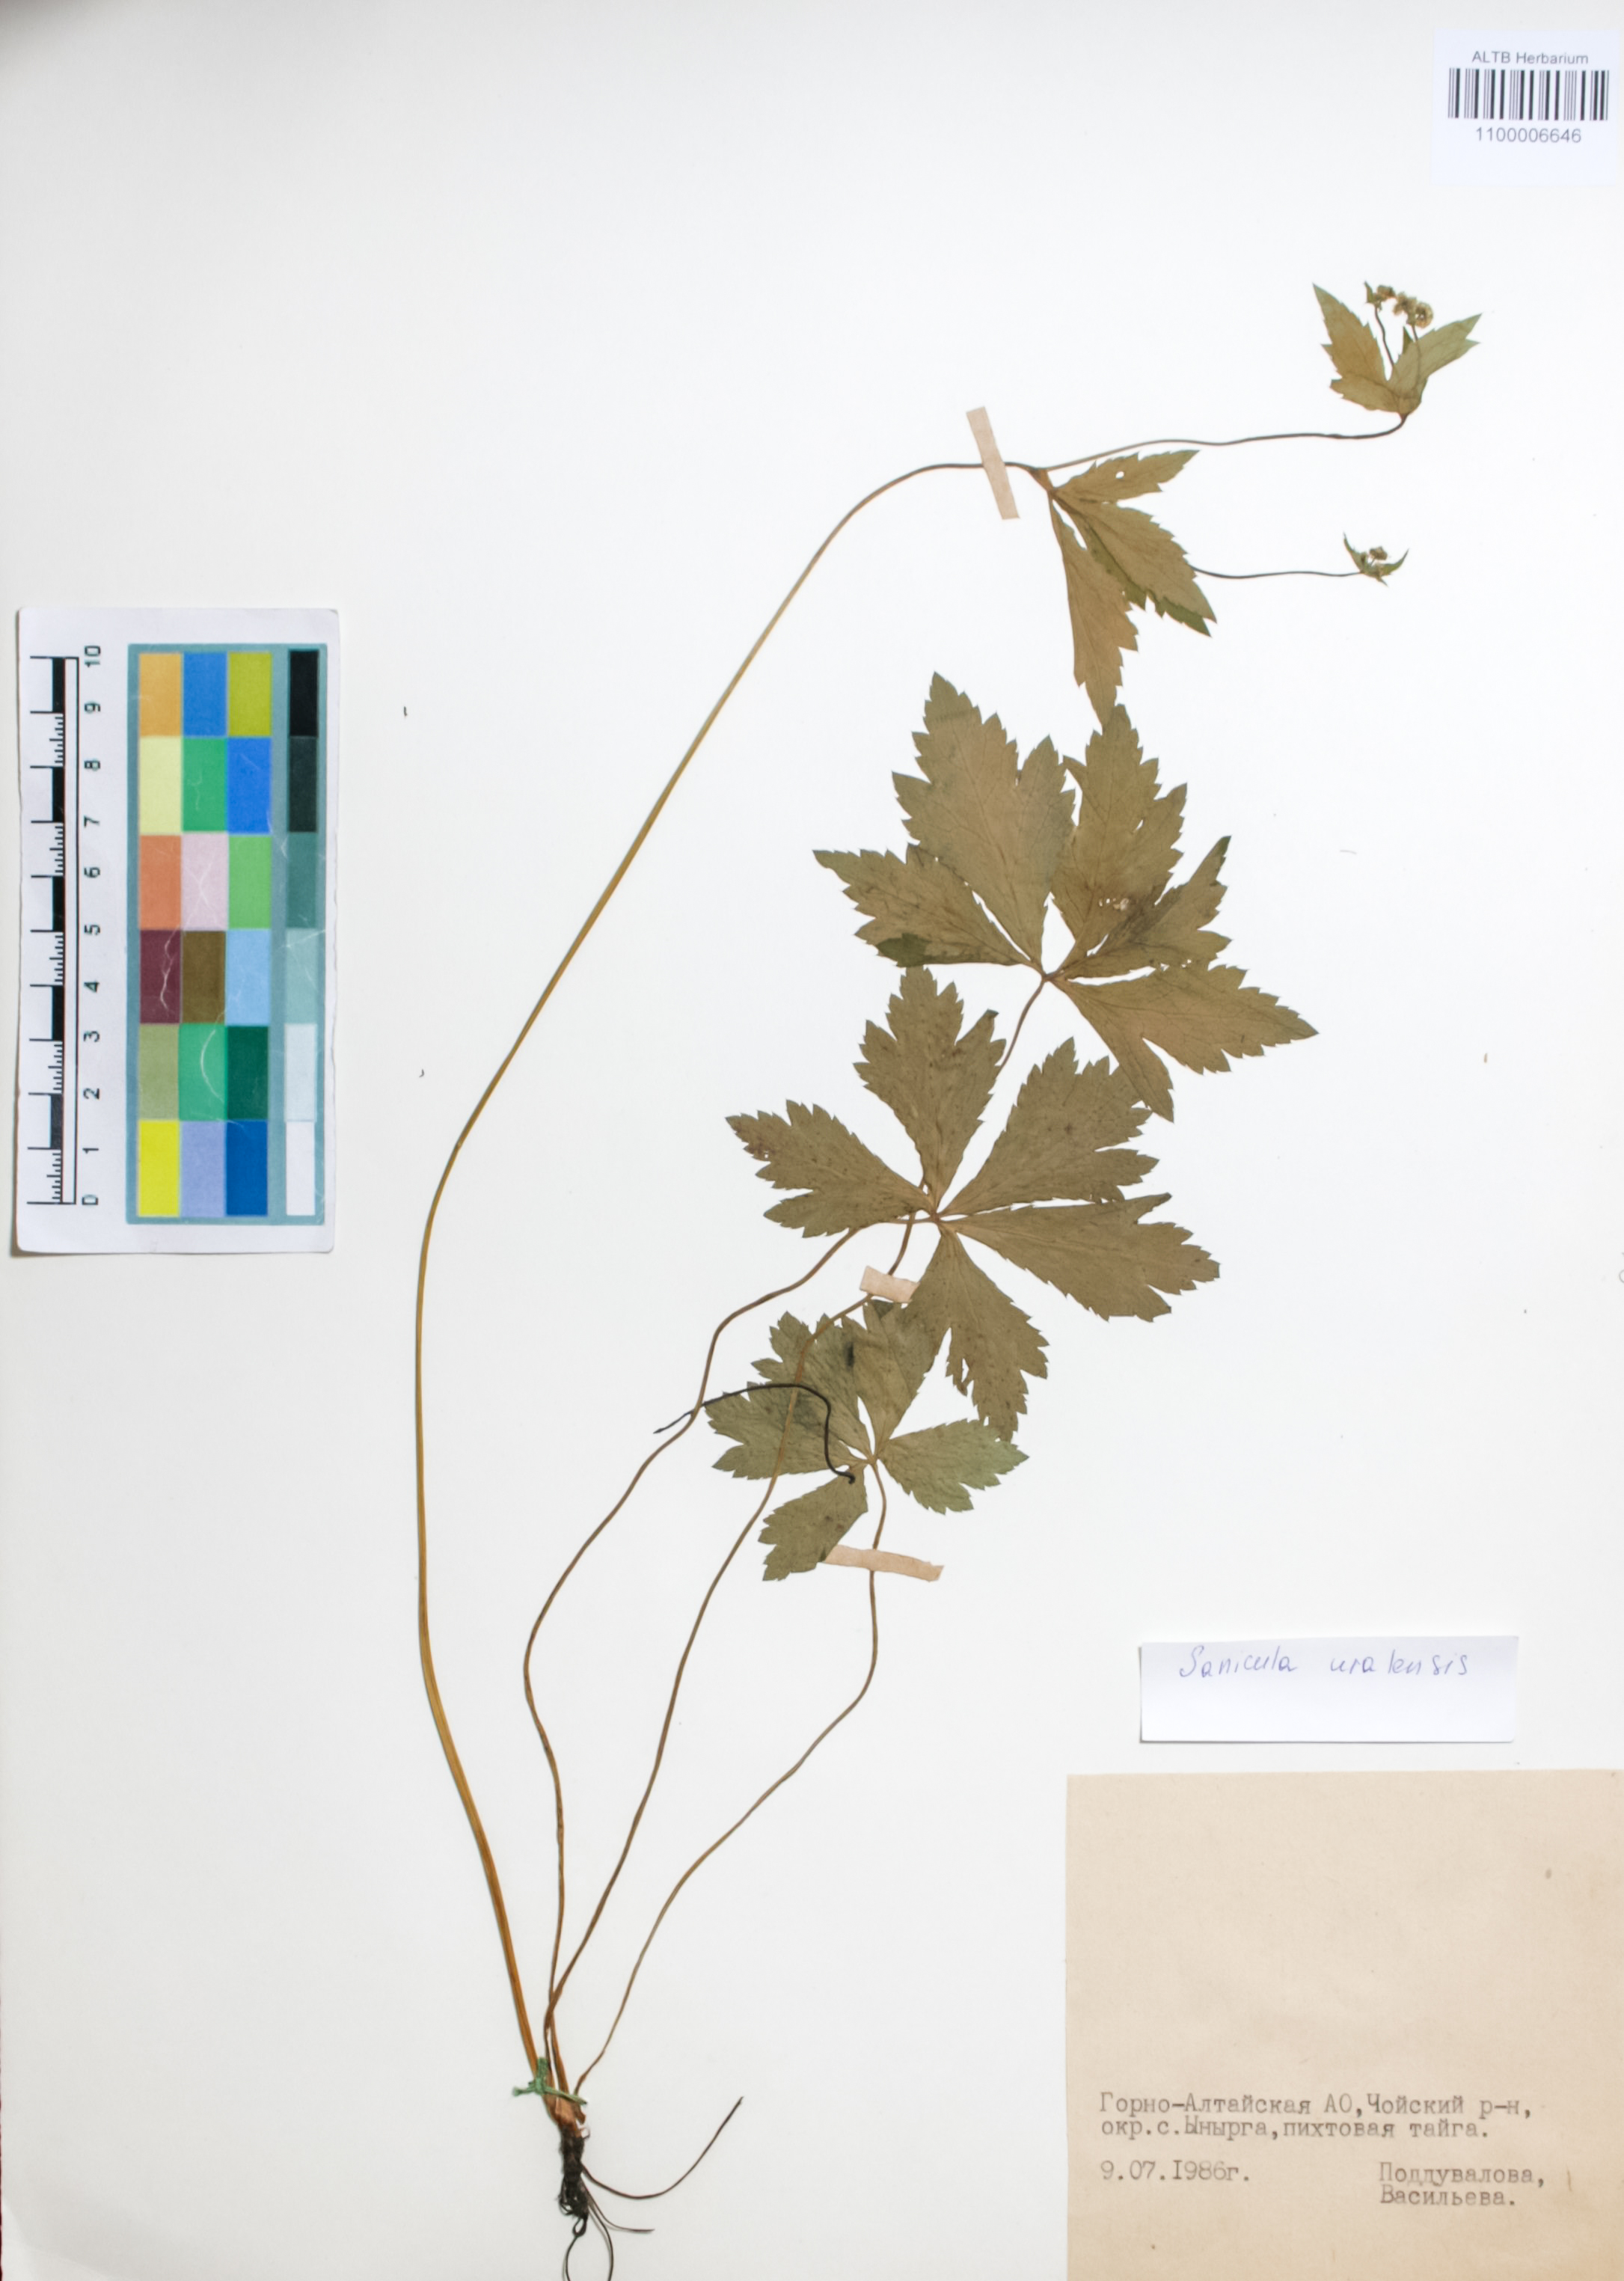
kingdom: Plantae
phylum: Tracheophyta
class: Magnoliopsida
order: Apiales
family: Apiaceae
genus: Sanicula
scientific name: Sanicula giraldii
